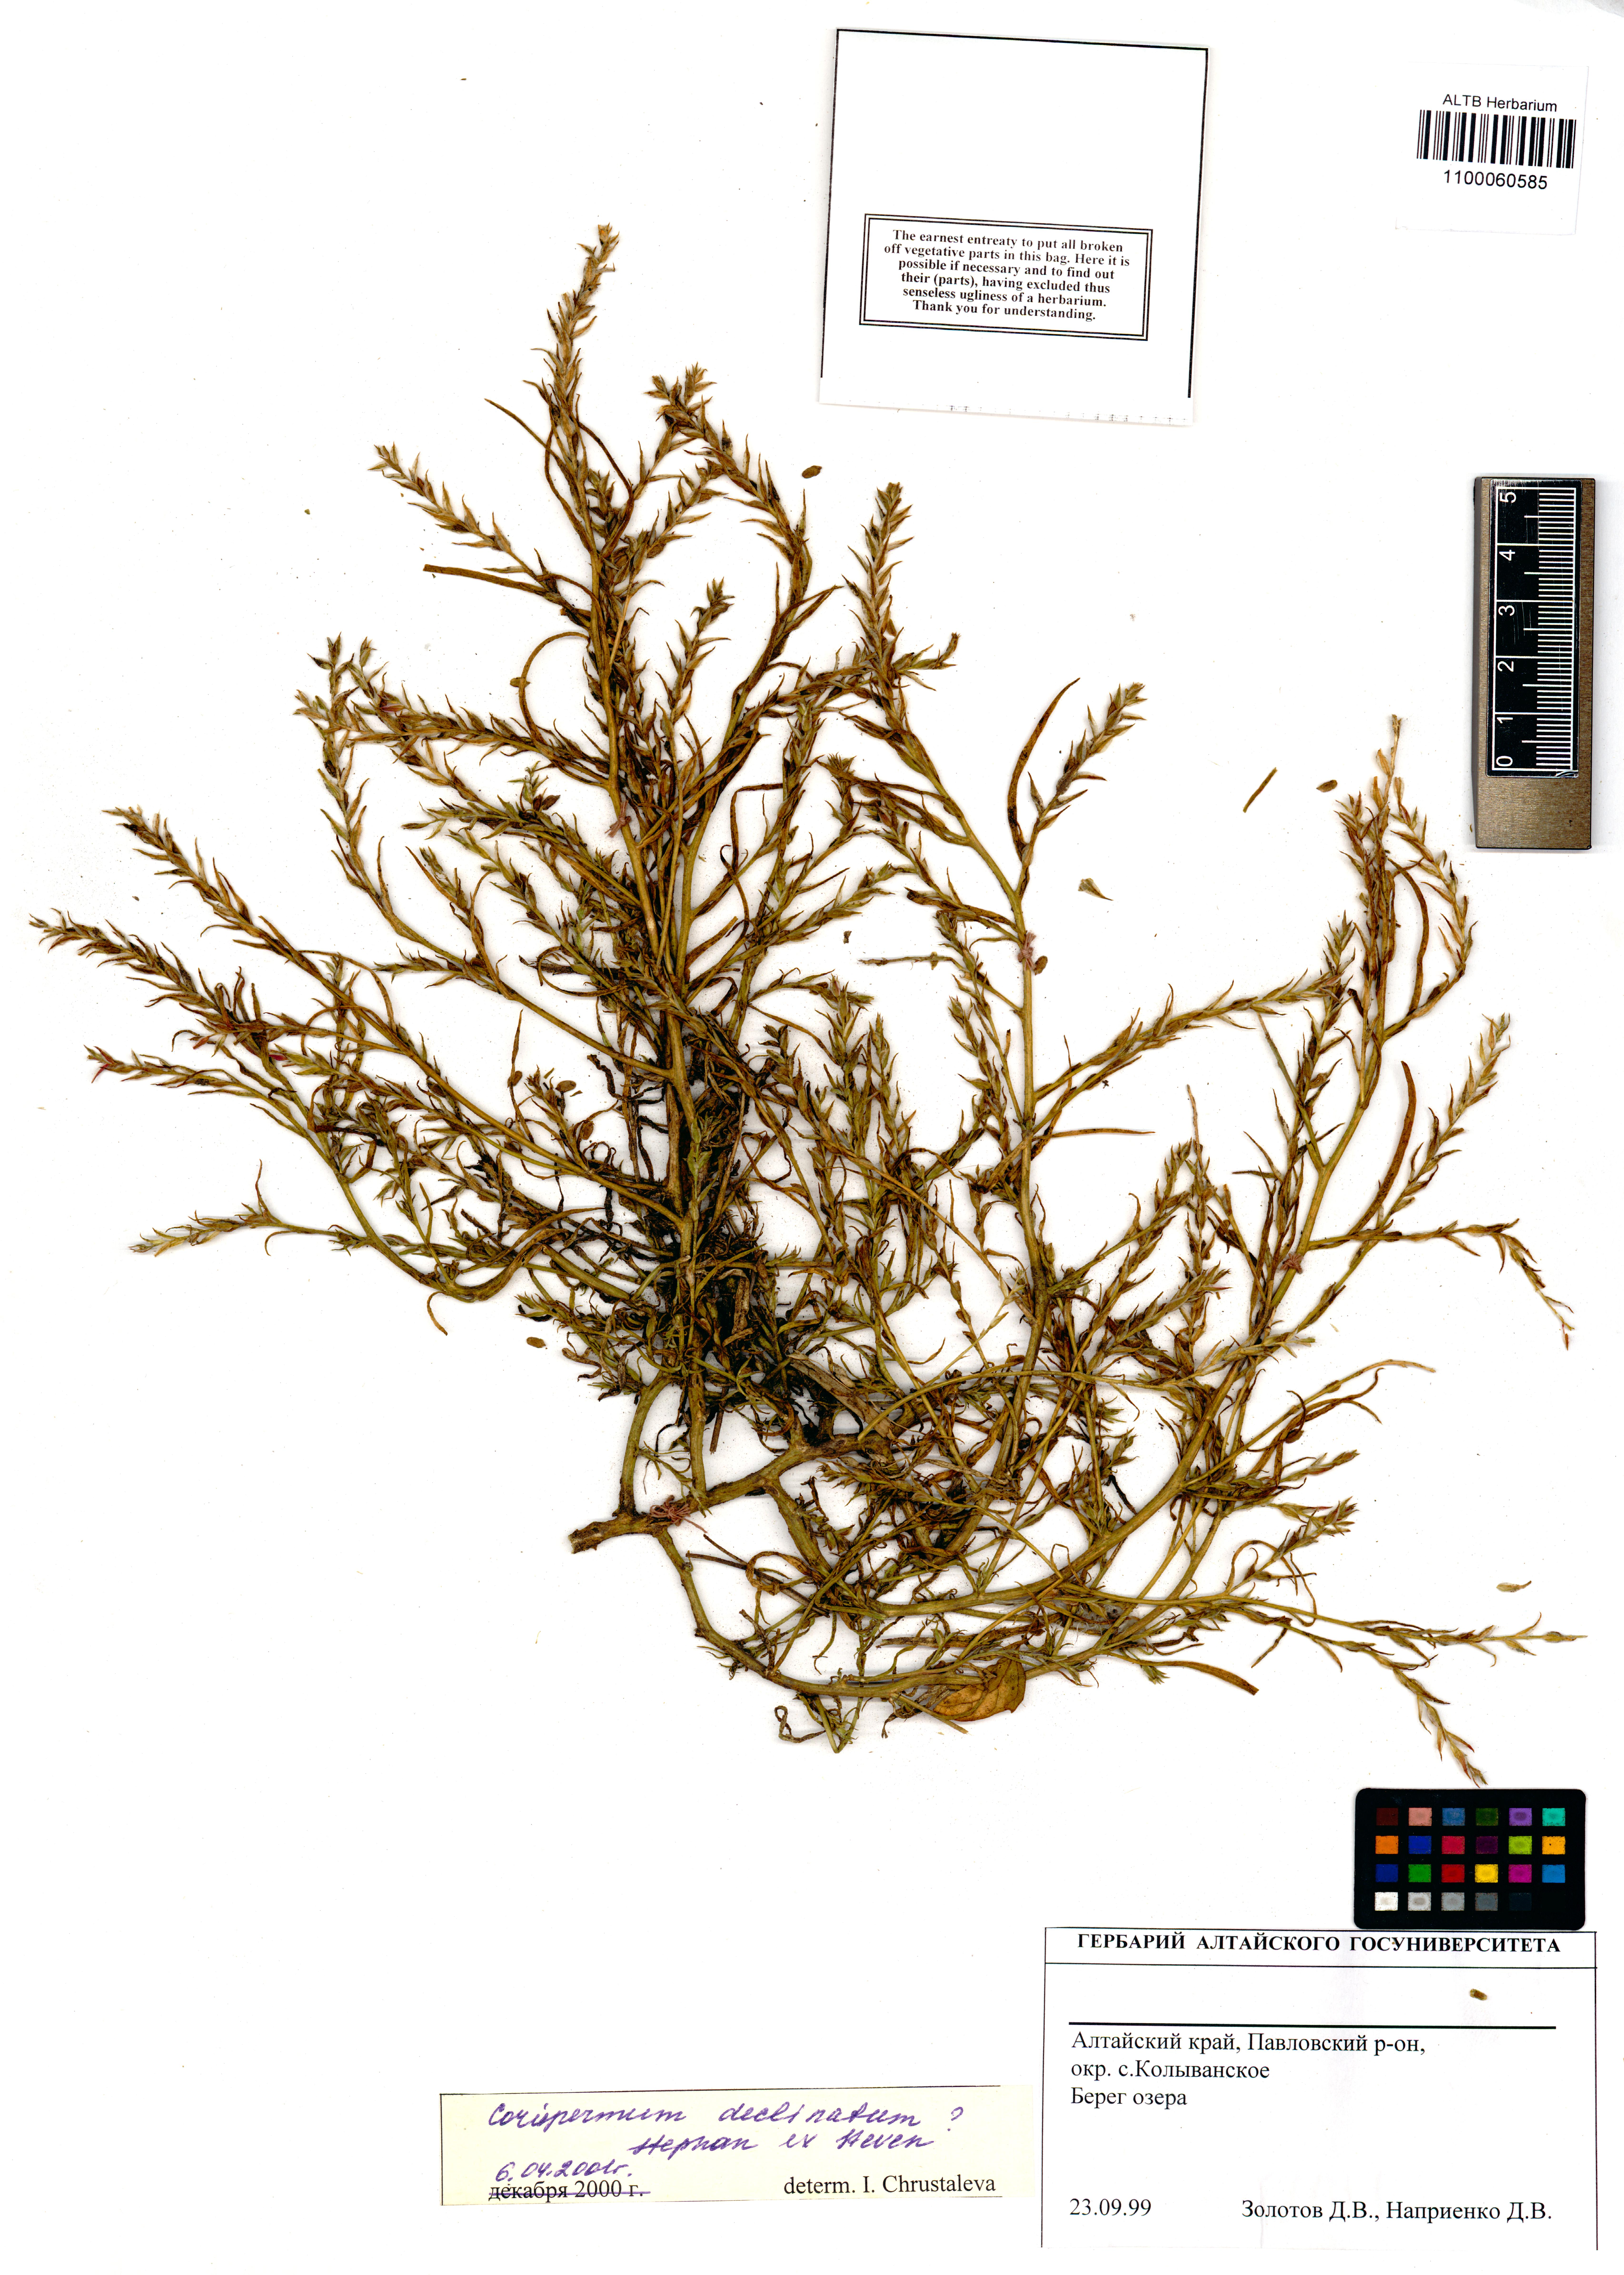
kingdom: Plantae
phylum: Tracheophyta
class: Magnoliopsida
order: Caryophyllales
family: Amaranthaceae
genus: Corispermum
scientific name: Corispermum declinatum
